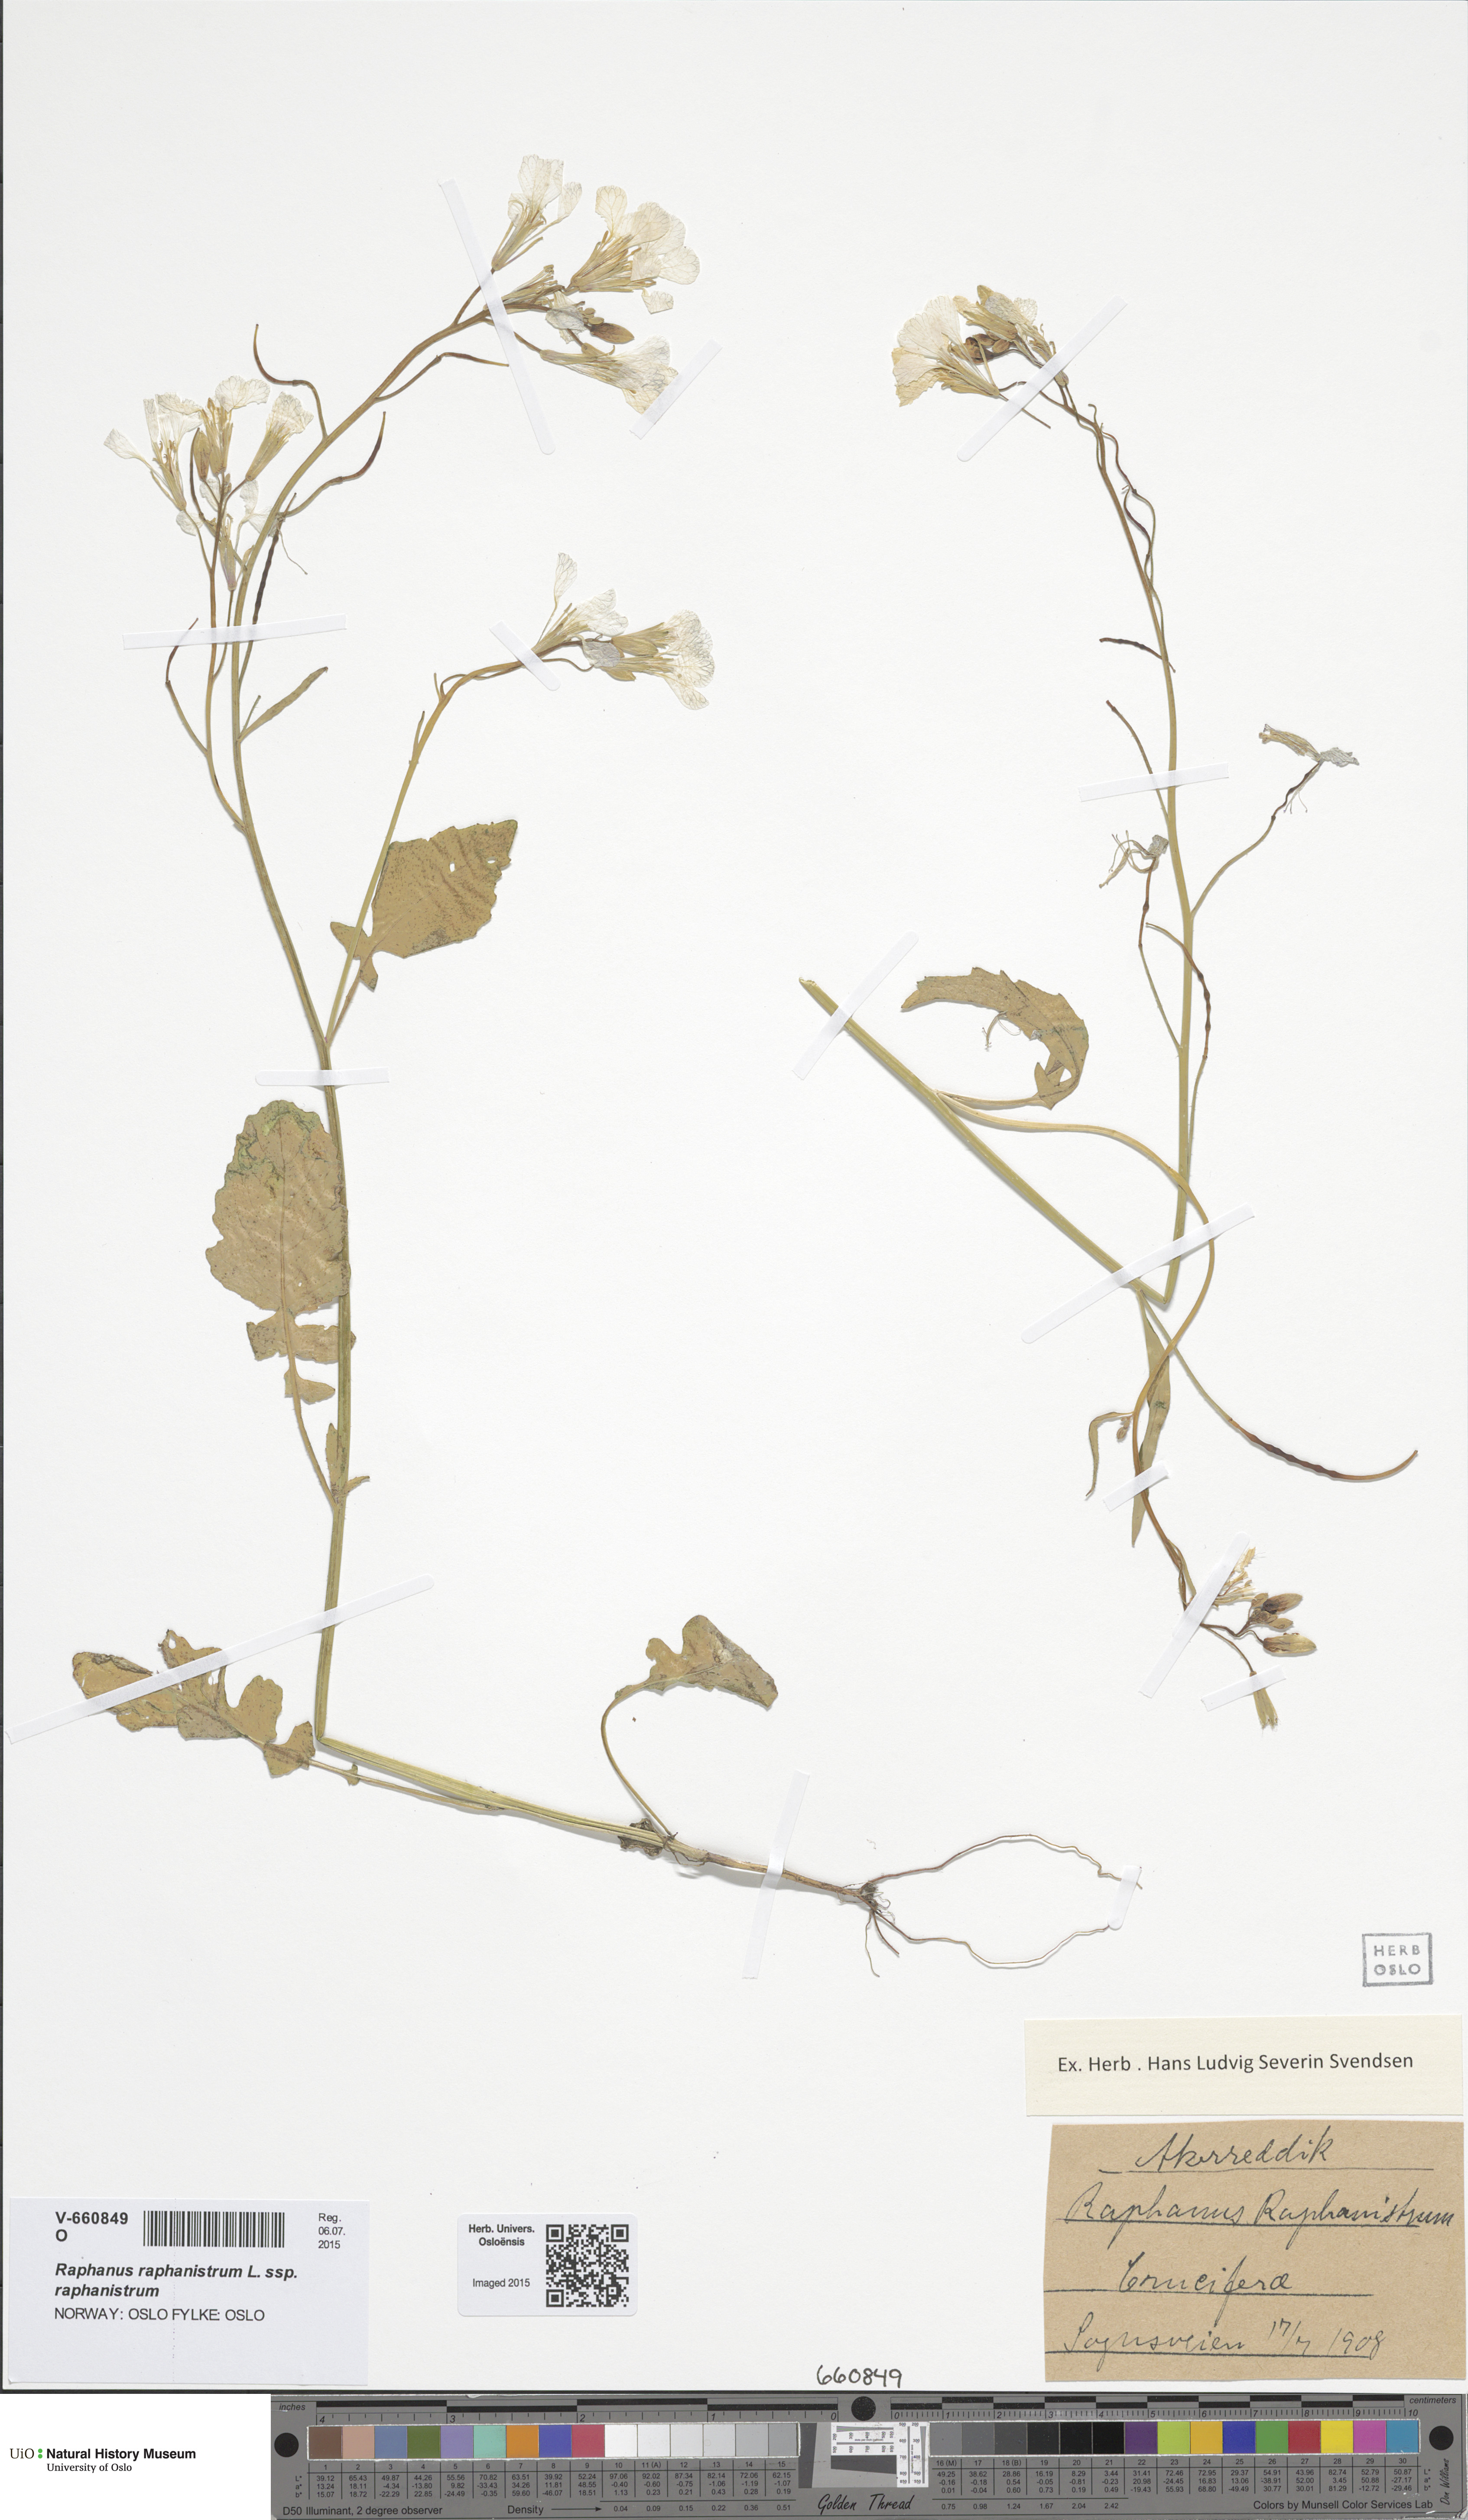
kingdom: Plantae
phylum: Tracheophyta
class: Magnoliopsida
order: Brassicales
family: Brassicaceae
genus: Raphanus
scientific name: Raphanus raphanistrum
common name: Wild radish
